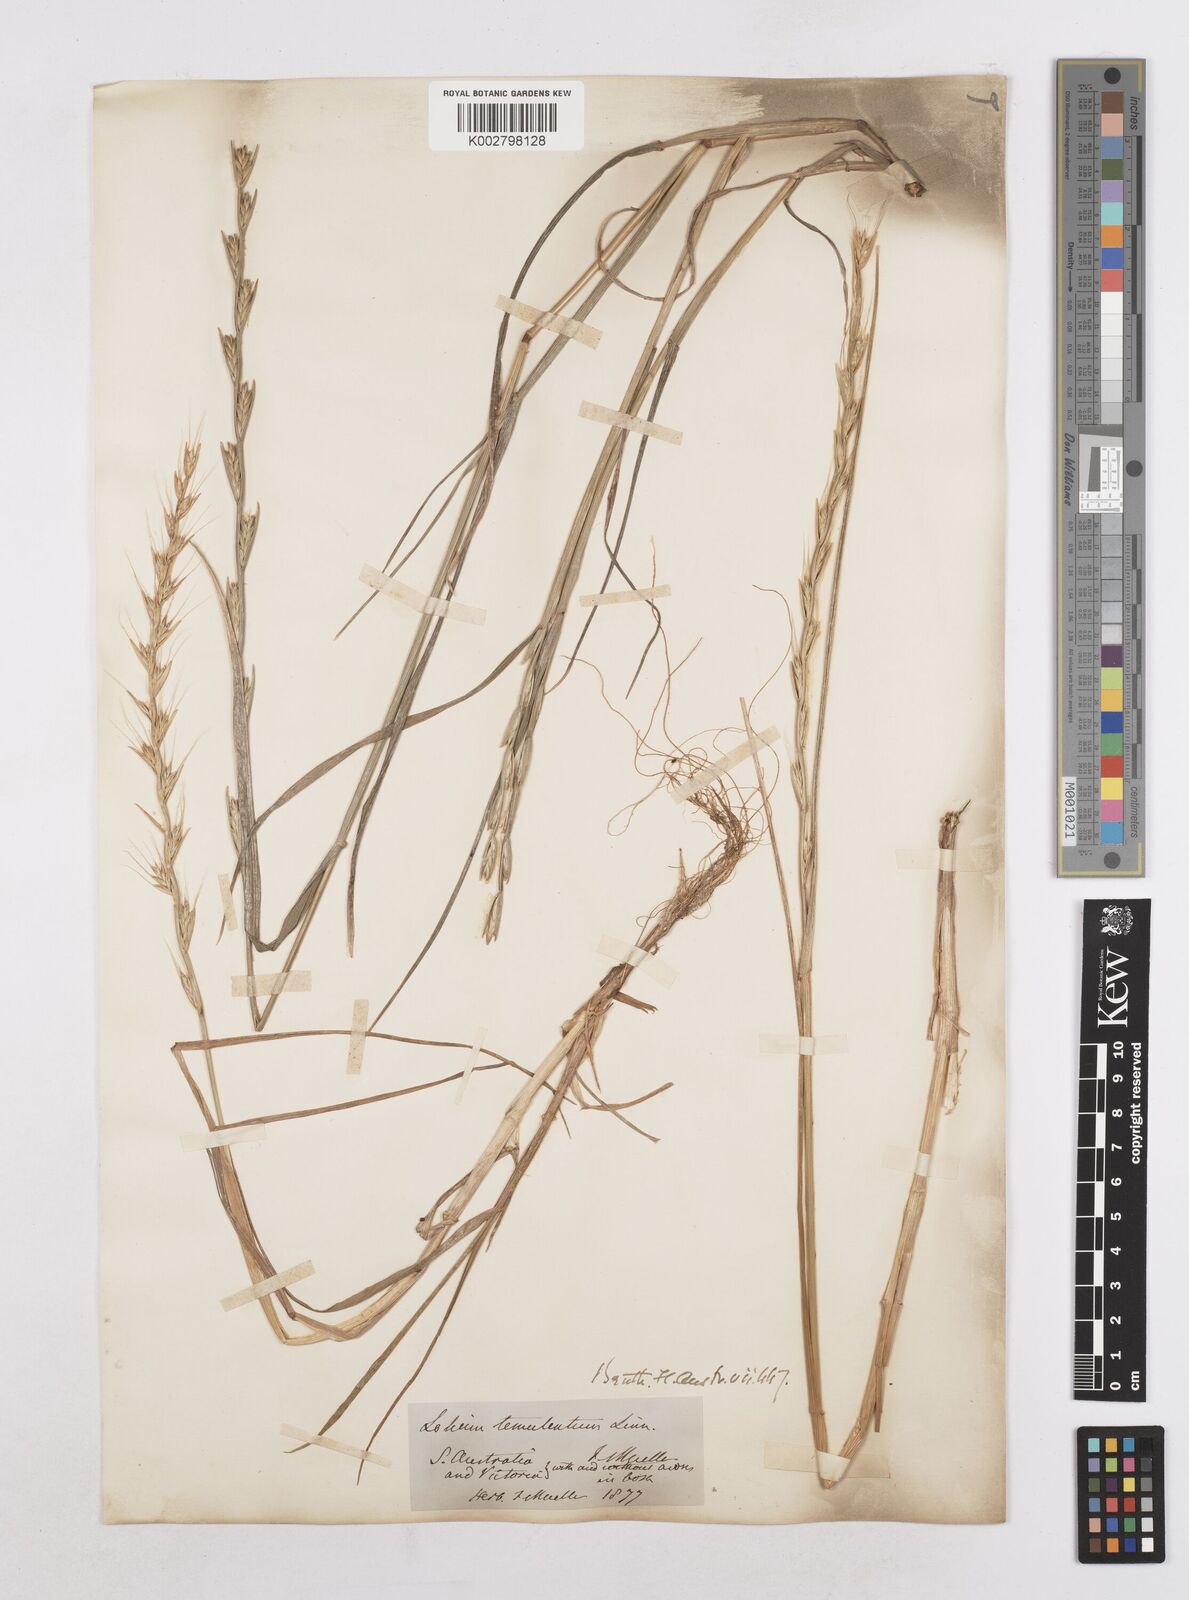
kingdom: Plantae
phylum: Tracheophyta
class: Liliopsida
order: Poales
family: Poaceae
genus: Lolium
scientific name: Lolium temulentum
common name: Darnel
